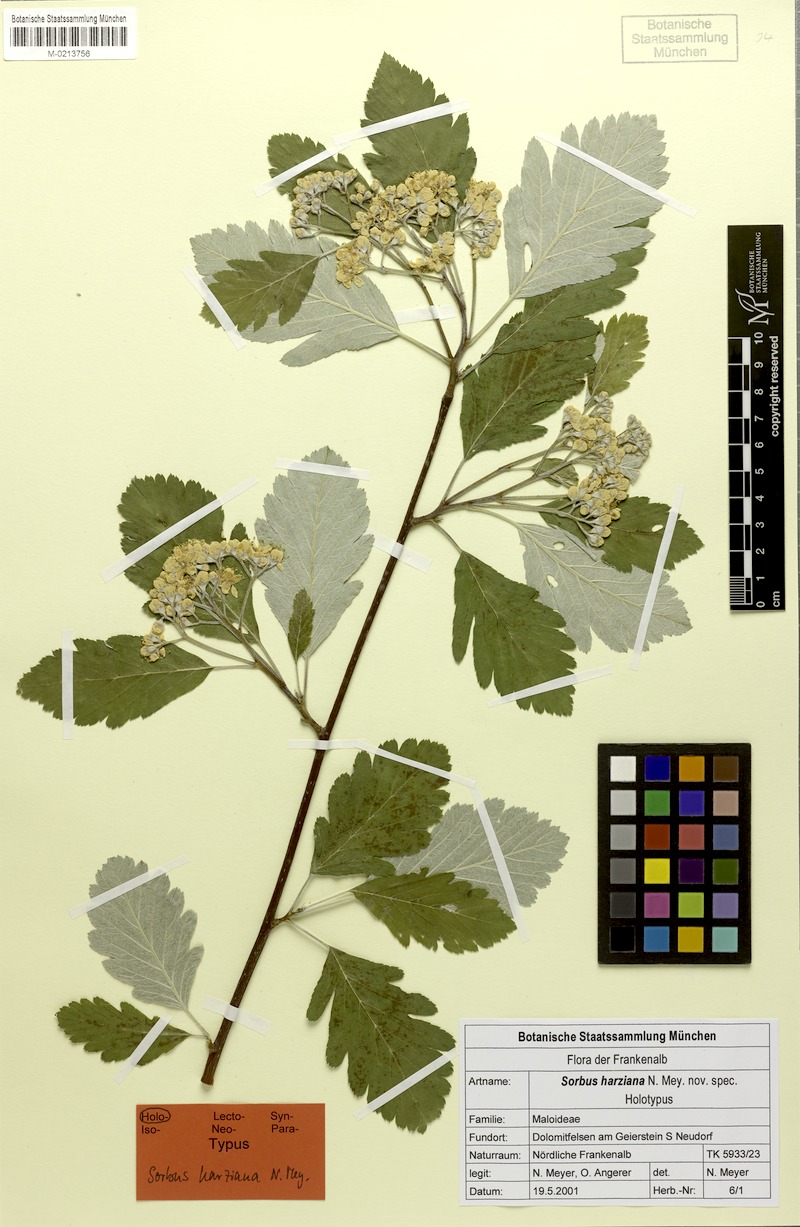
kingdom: Plantae
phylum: Tracheophyta
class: Magnoliopsida
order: Rosales
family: Rosaceae
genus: Hedlundia
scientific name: Hedlundia harziana
